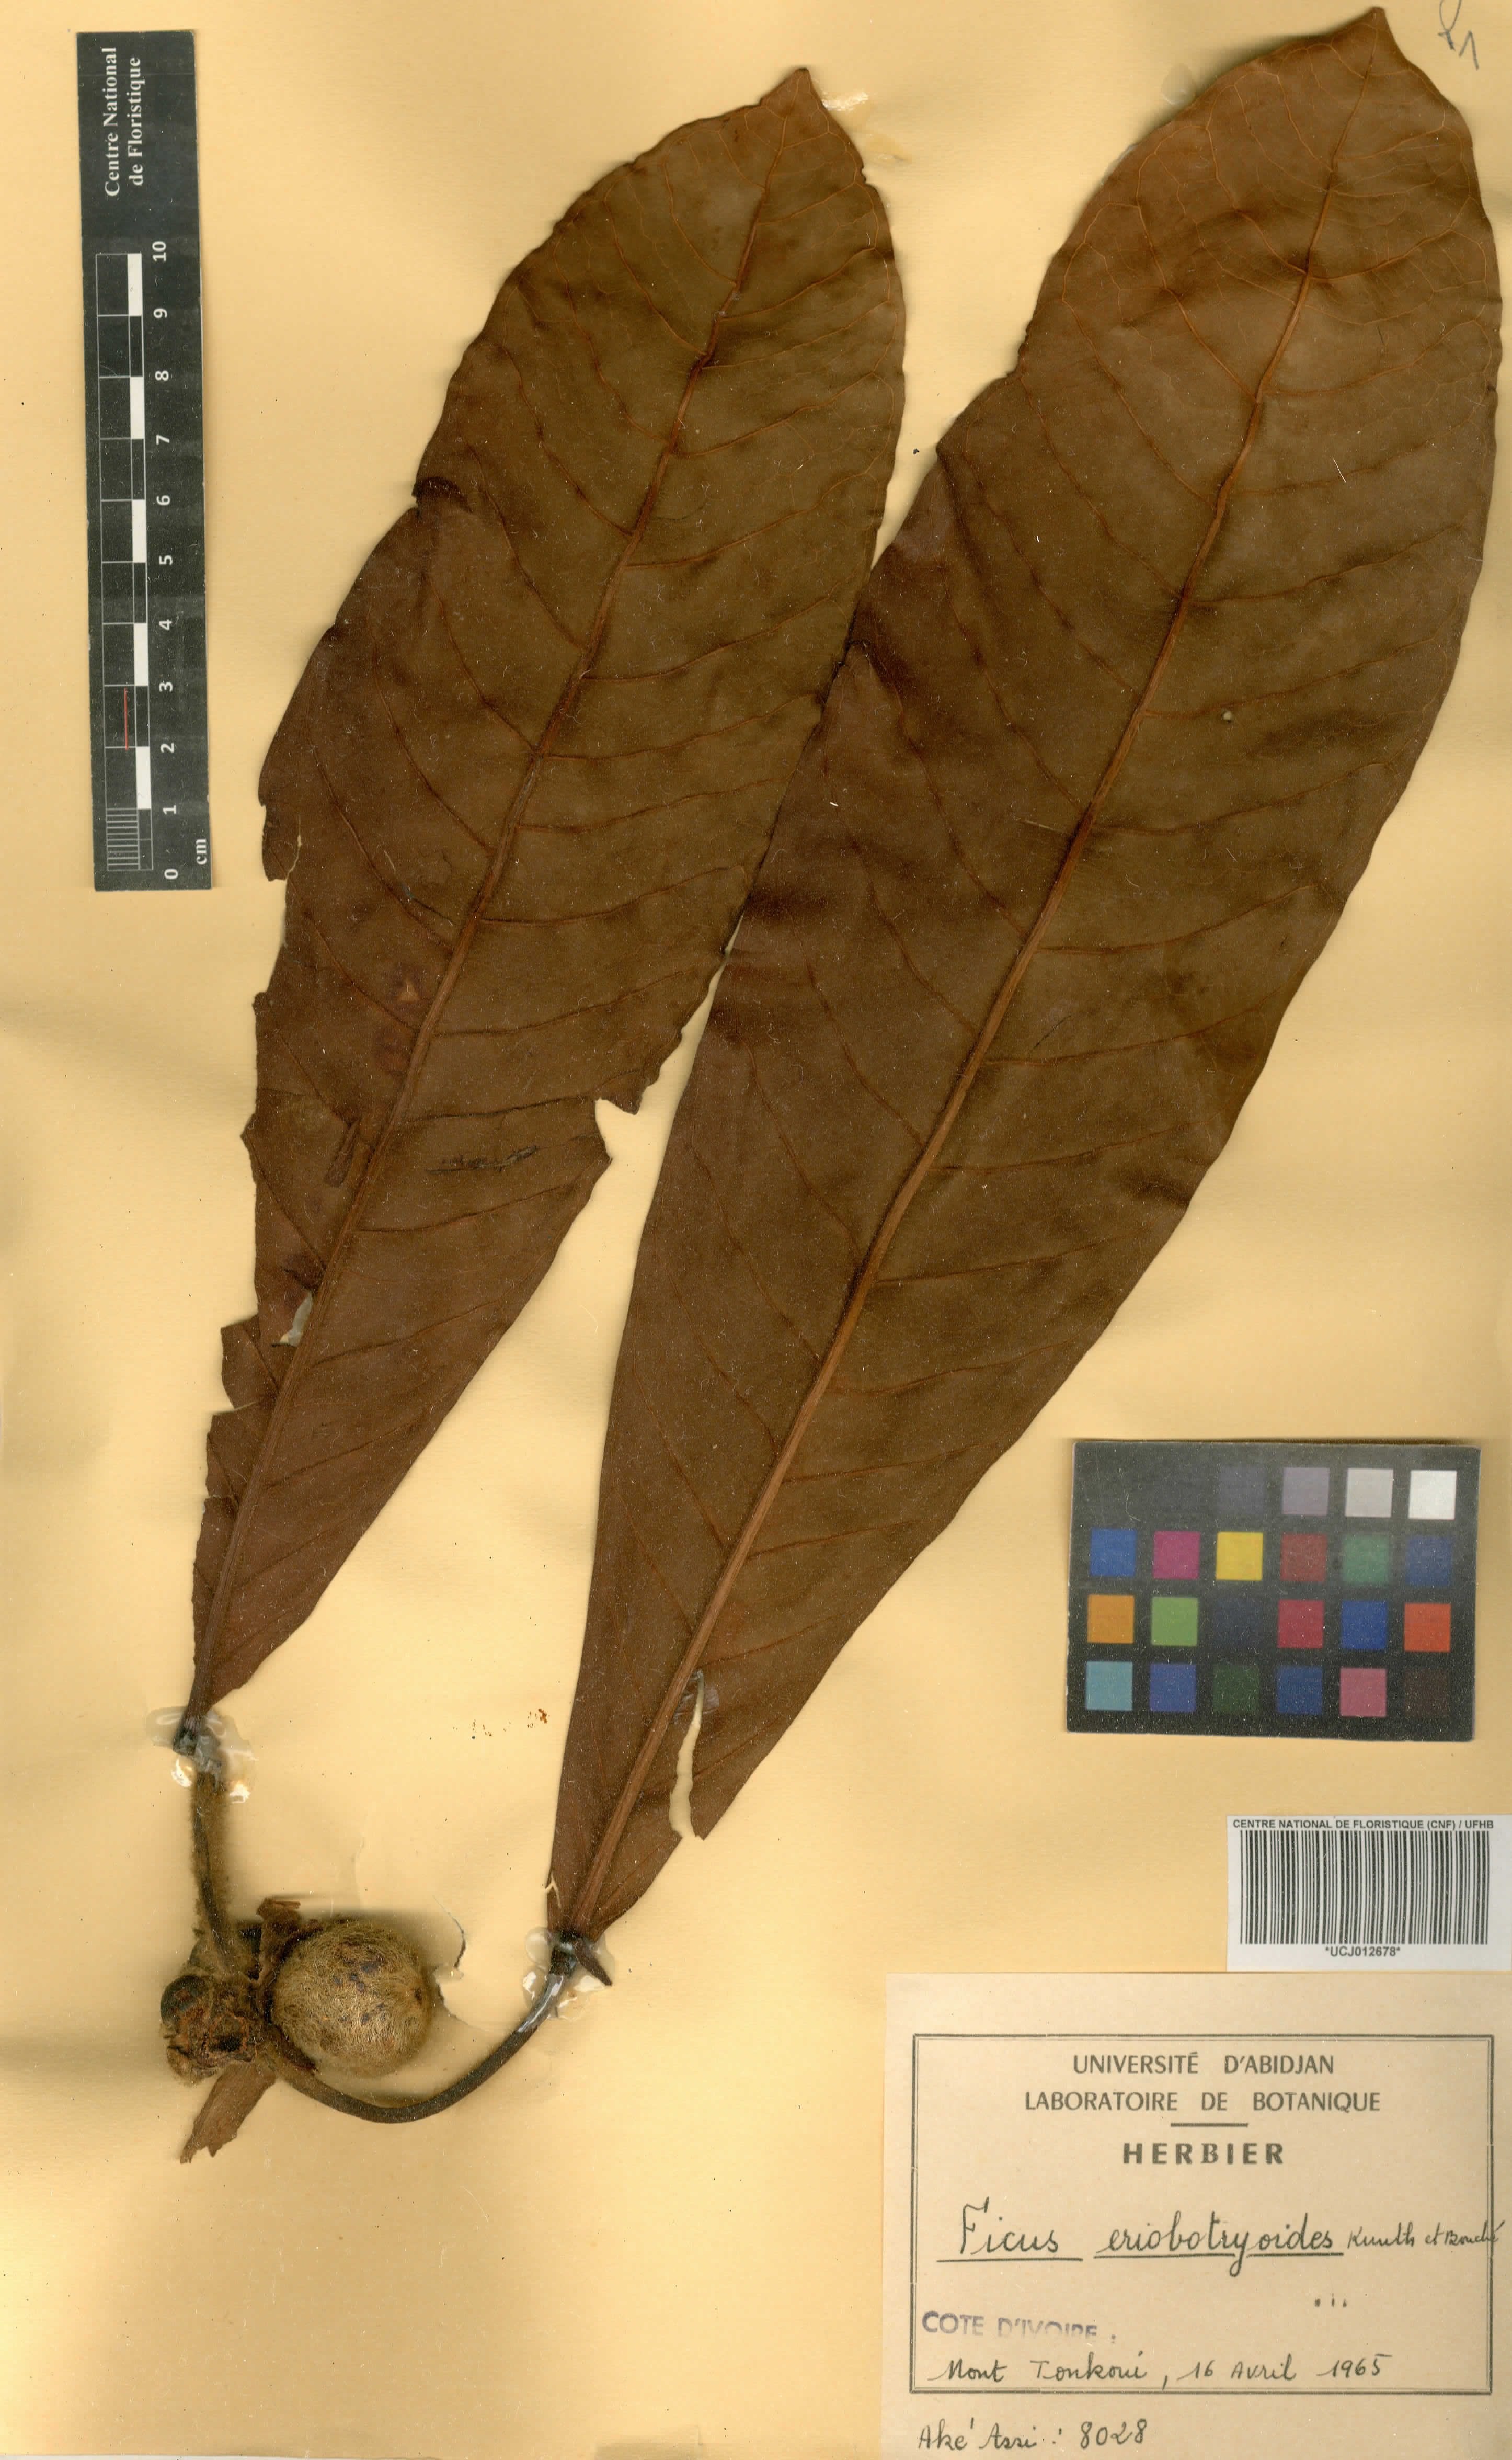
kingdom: Plantae
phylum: Tracheophyta
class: Magnoliopsida
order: Rosales
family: Moraceae
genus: Ficus
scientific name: Ficus
